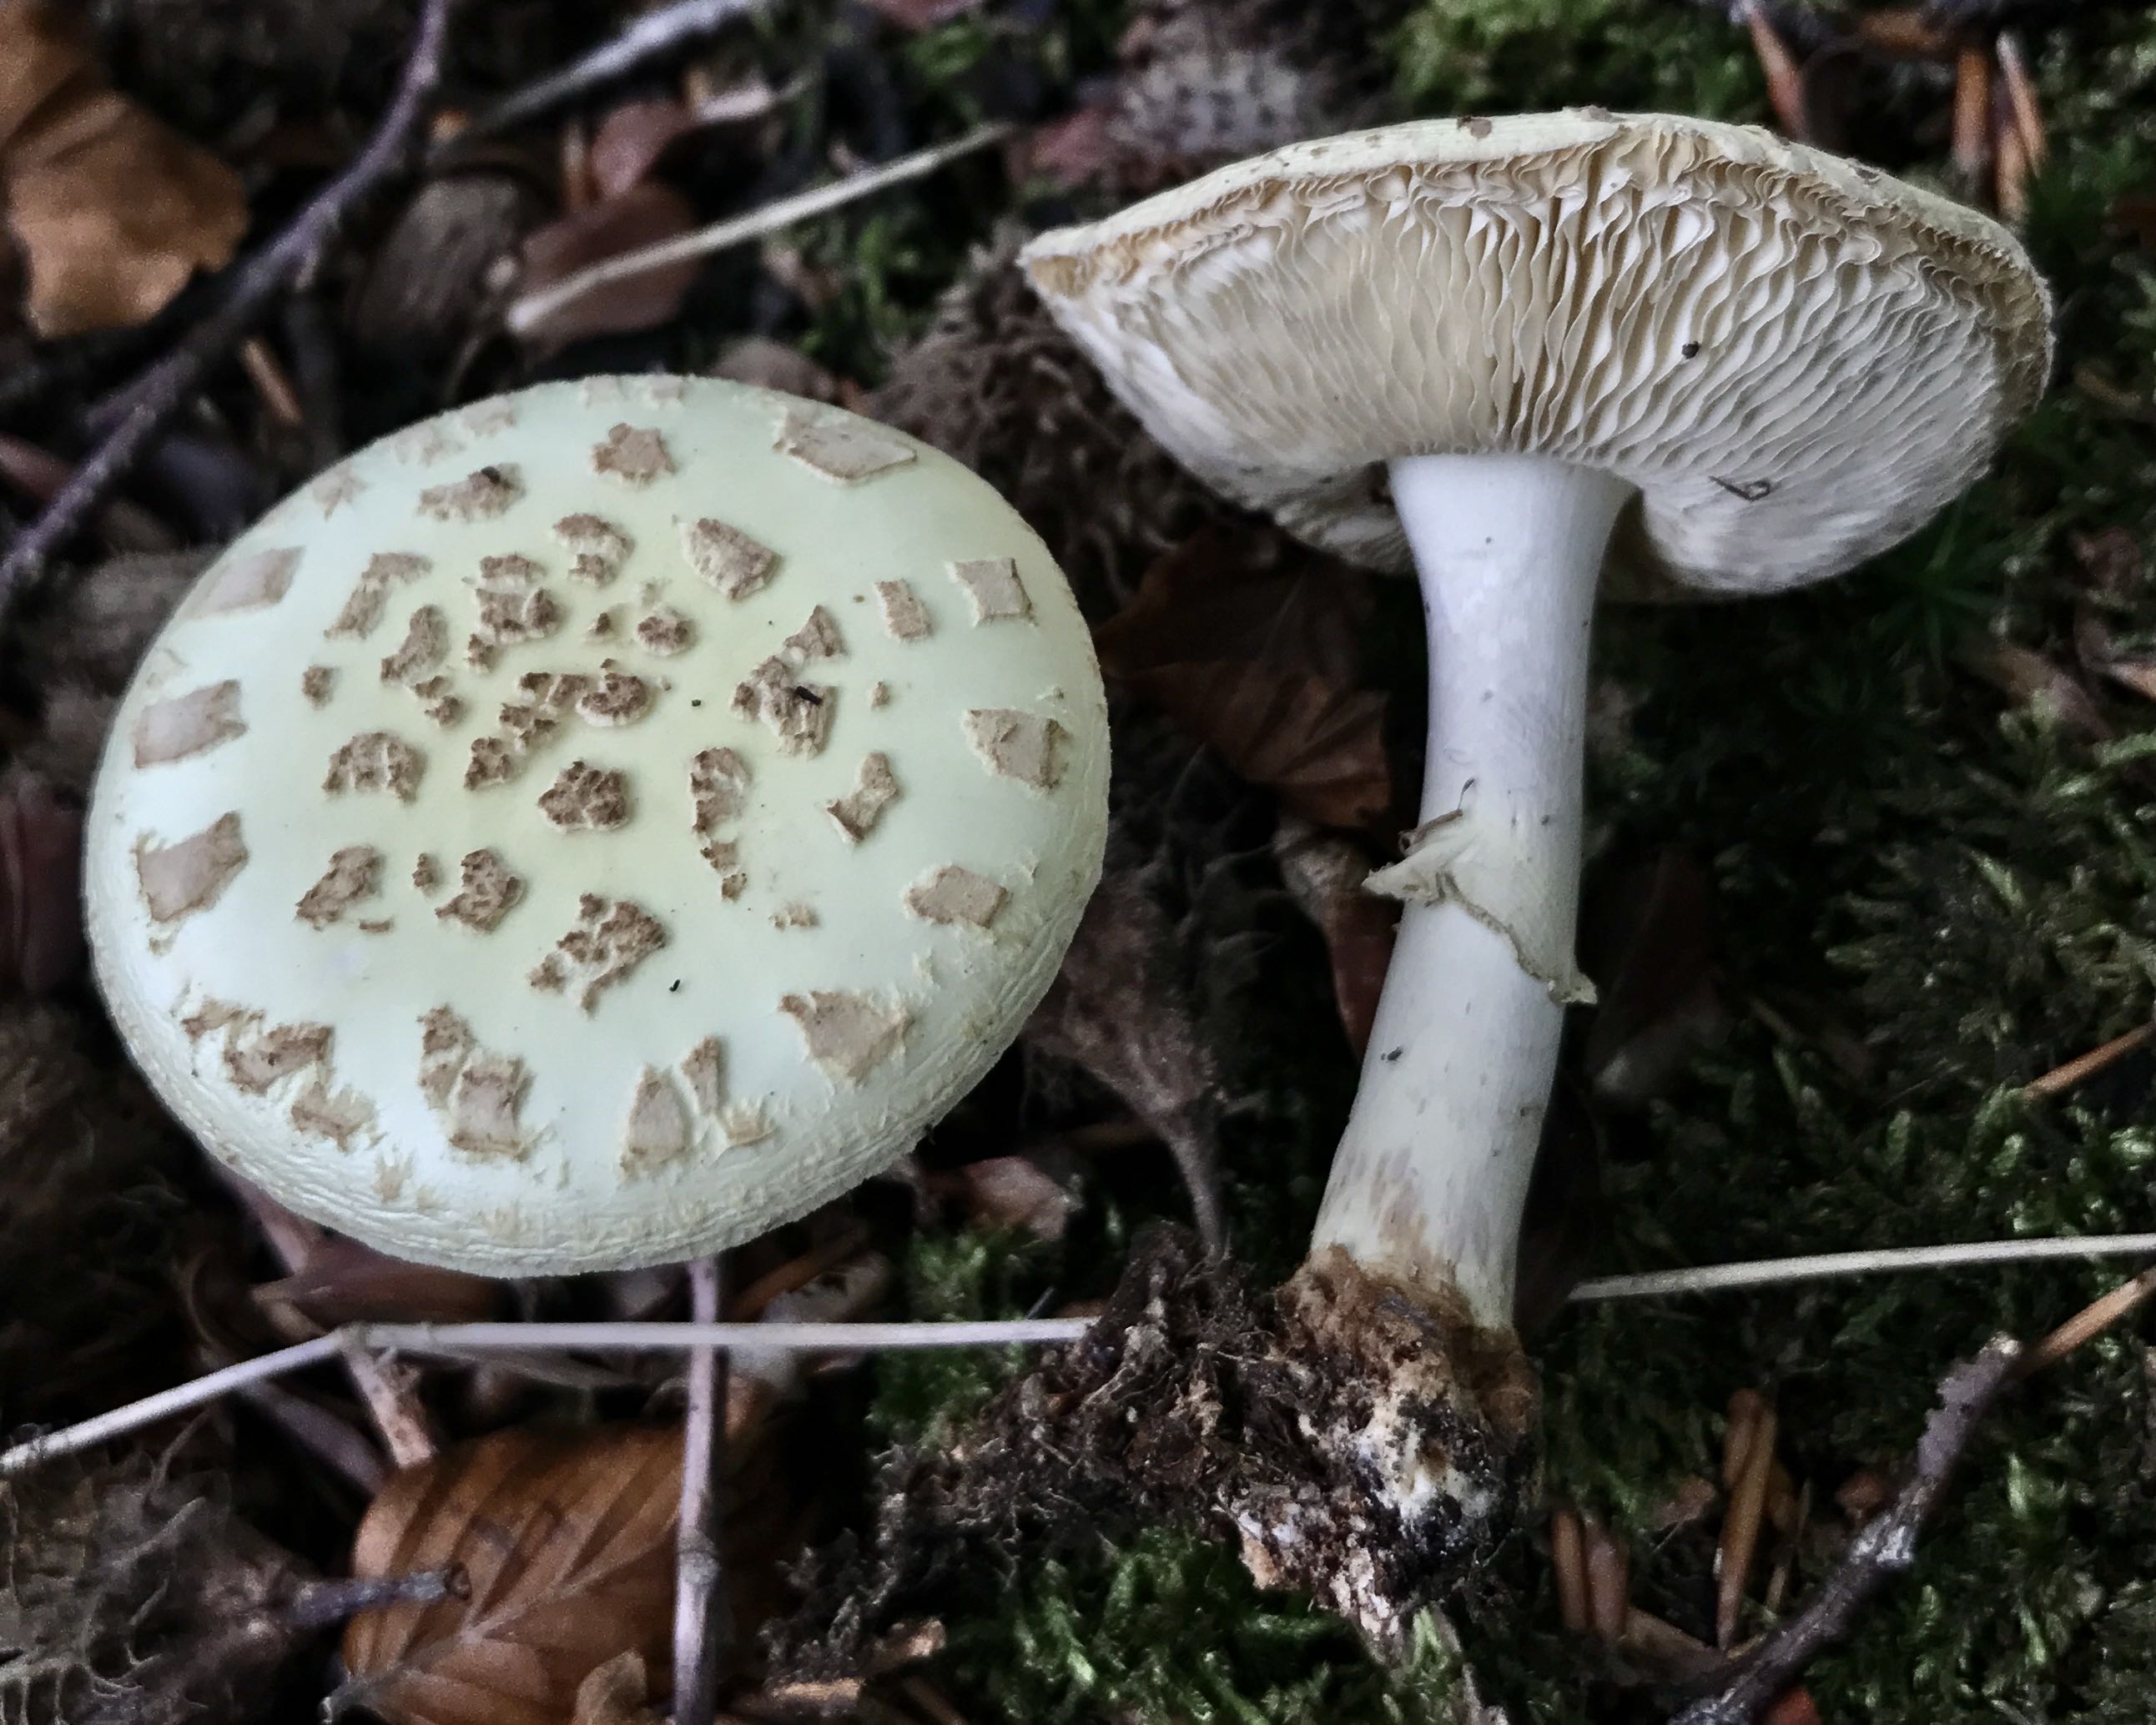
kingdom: Fungi
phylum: Basidiomycota
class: Agaricomycetes
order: Agaricales
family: Amanitaceae
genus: Amanita
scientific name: Amanita citrina
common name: kugleknoldet fluesvamp
